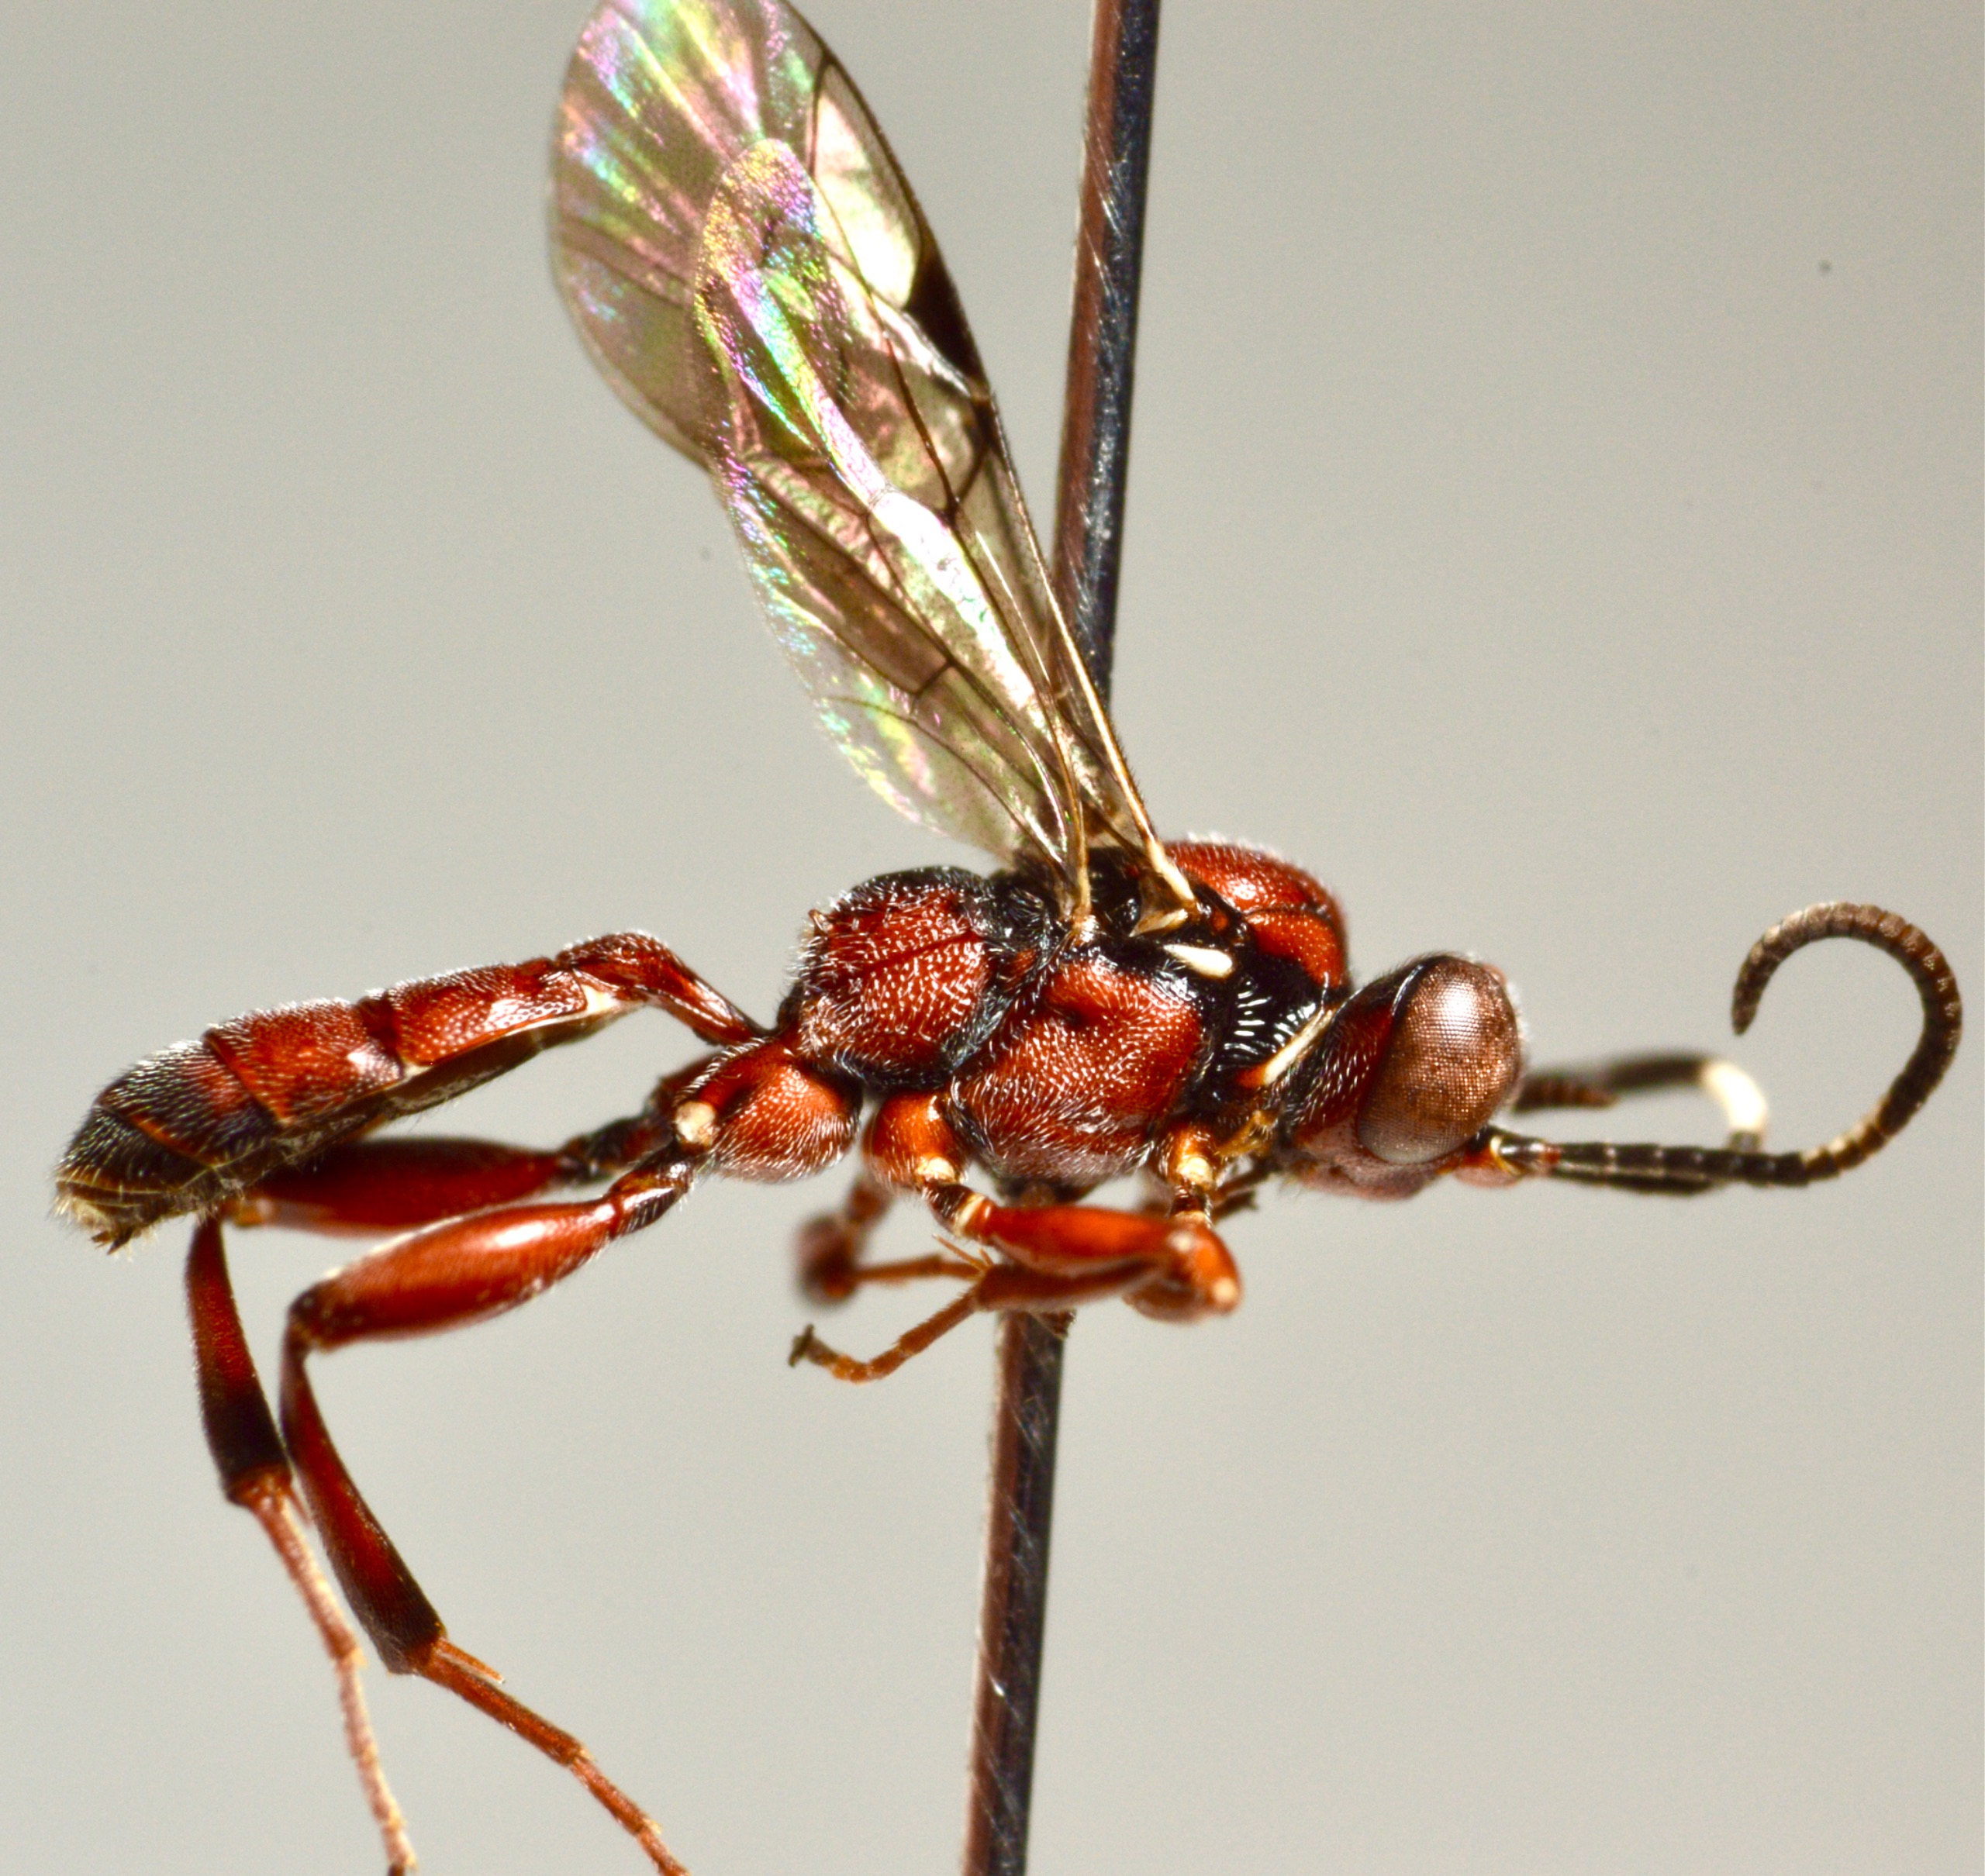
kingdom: Animalia
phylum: Arthropoda
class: Insecta
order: Hymenoptera
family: Ichneumonidae
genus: Apaeleticus
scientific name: Apaeleticus inimicus
